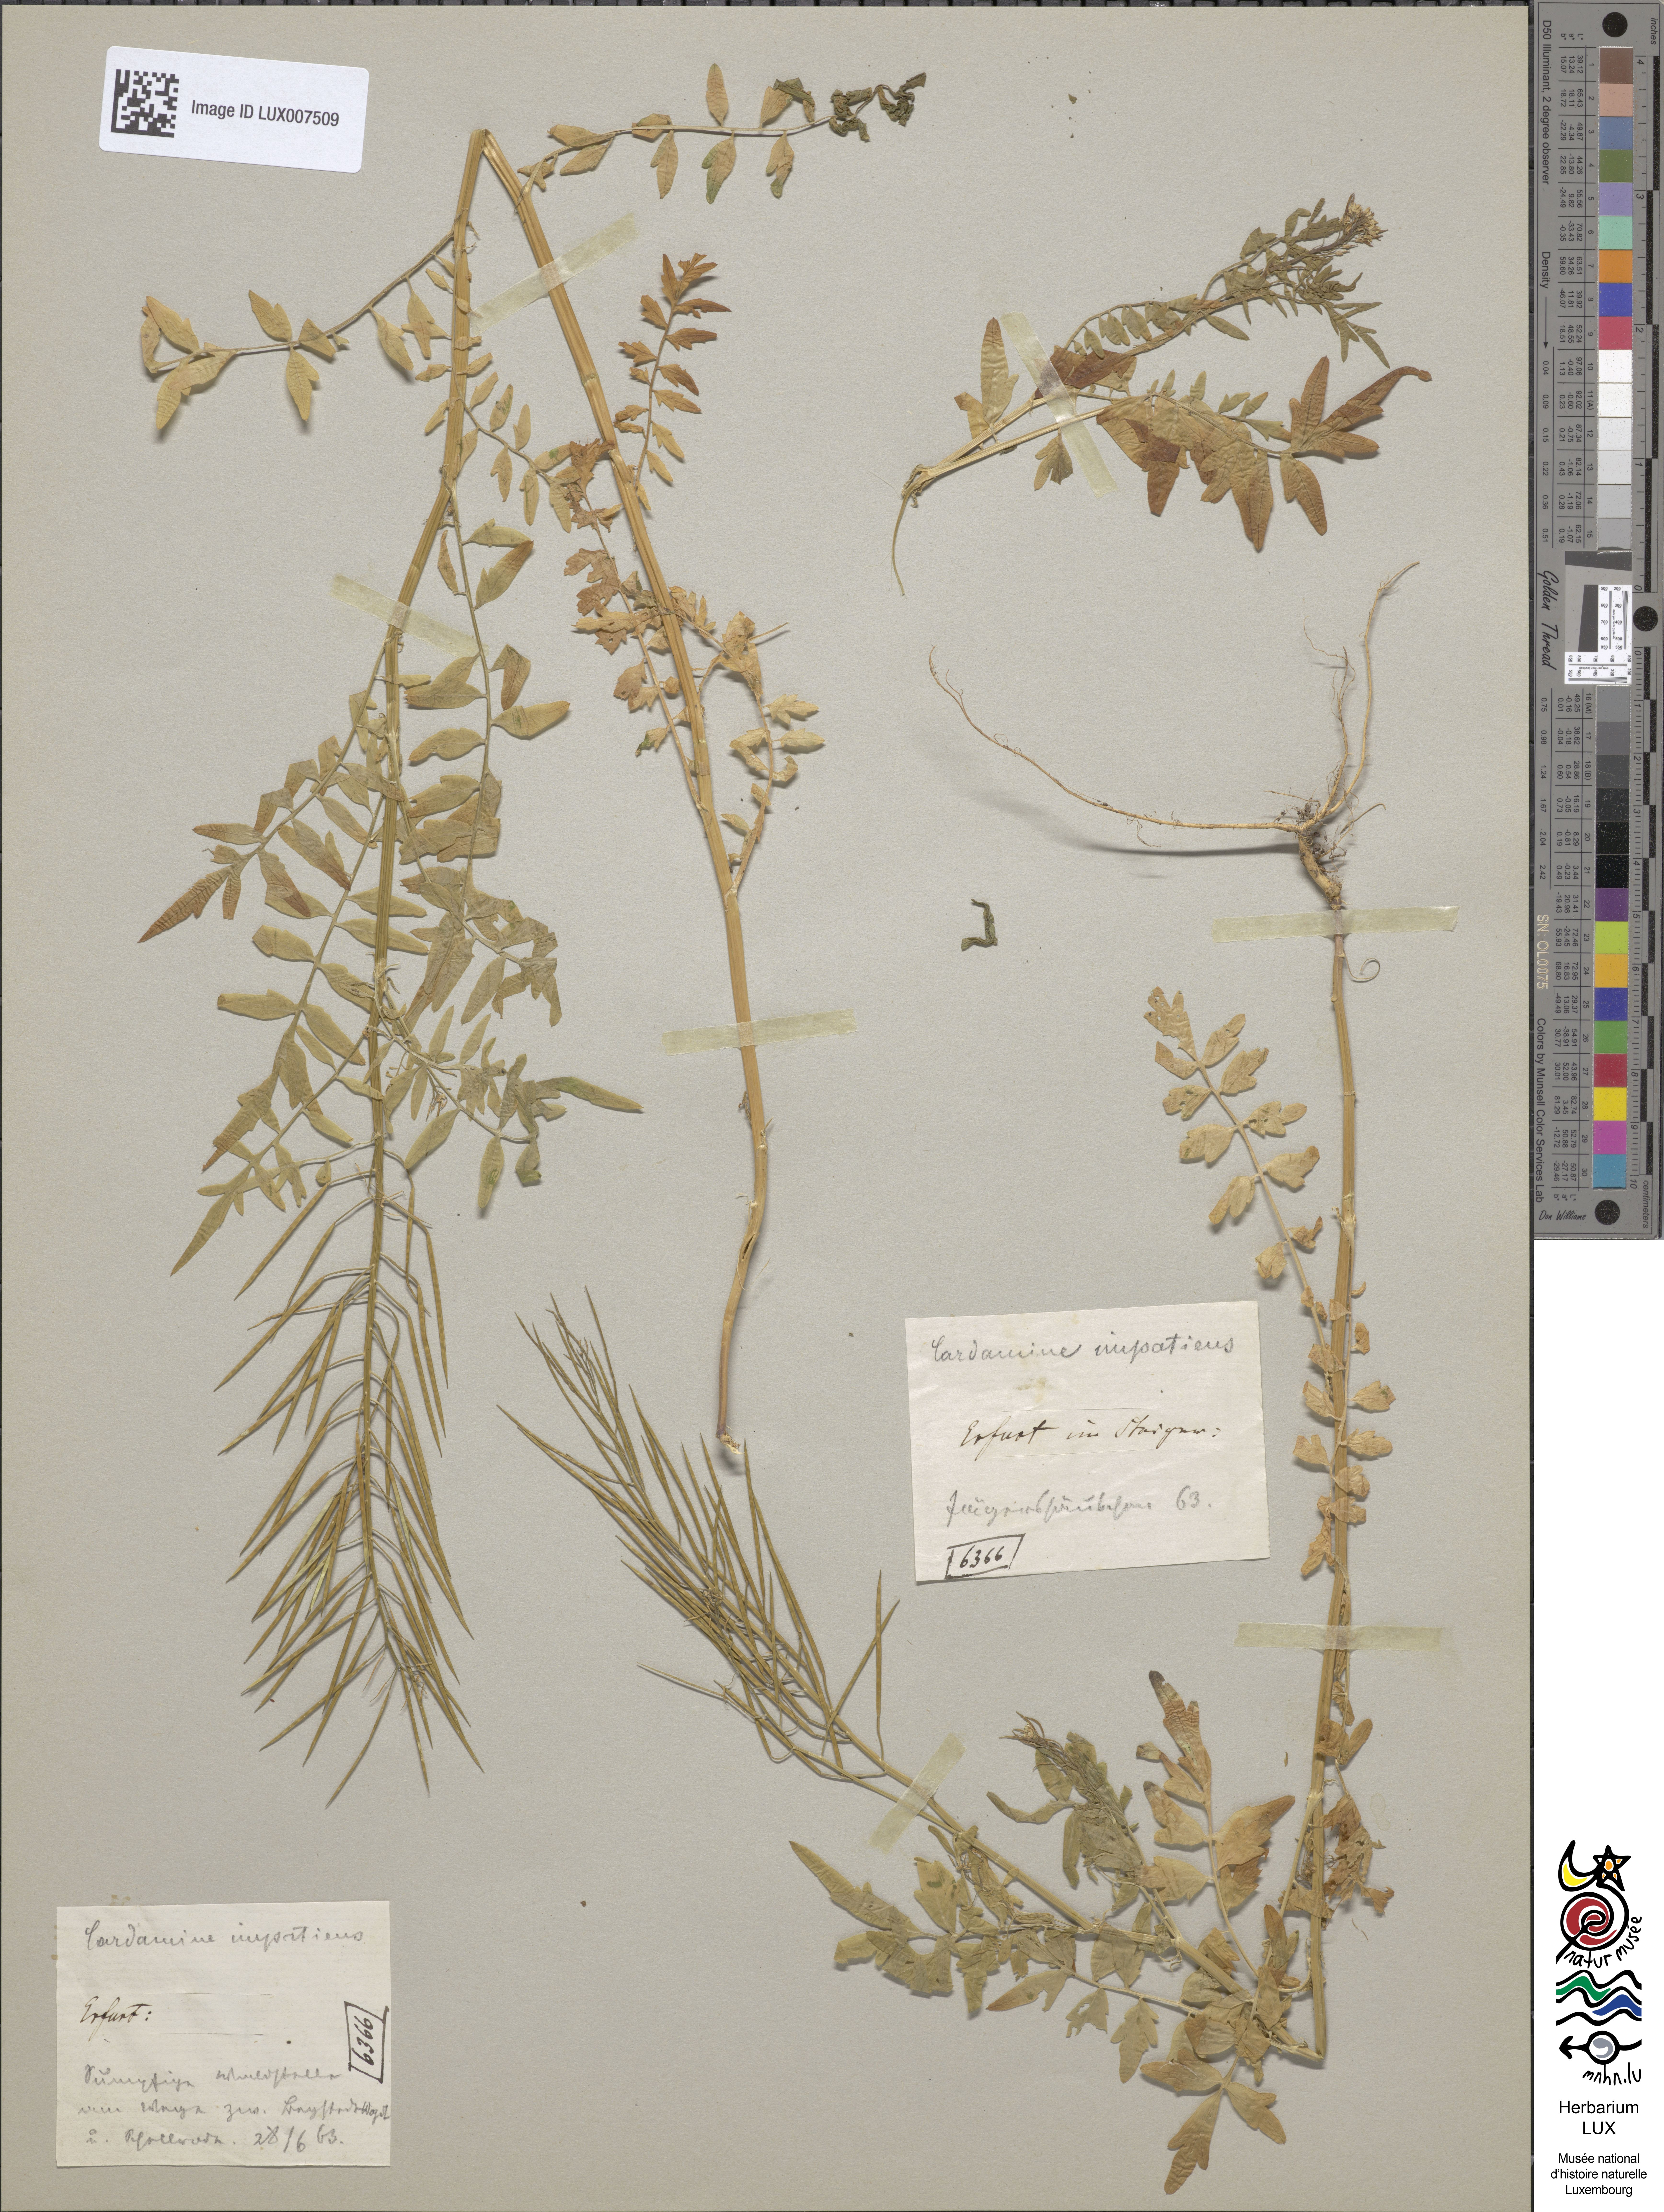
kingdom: Plantae
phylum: Tracheophyta
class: Magnoliopsida
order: Brassicales
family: Brassicaceae
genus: Cardamine
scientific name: Cardamine impatiens
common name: Narrow-leaved bitter-cress
